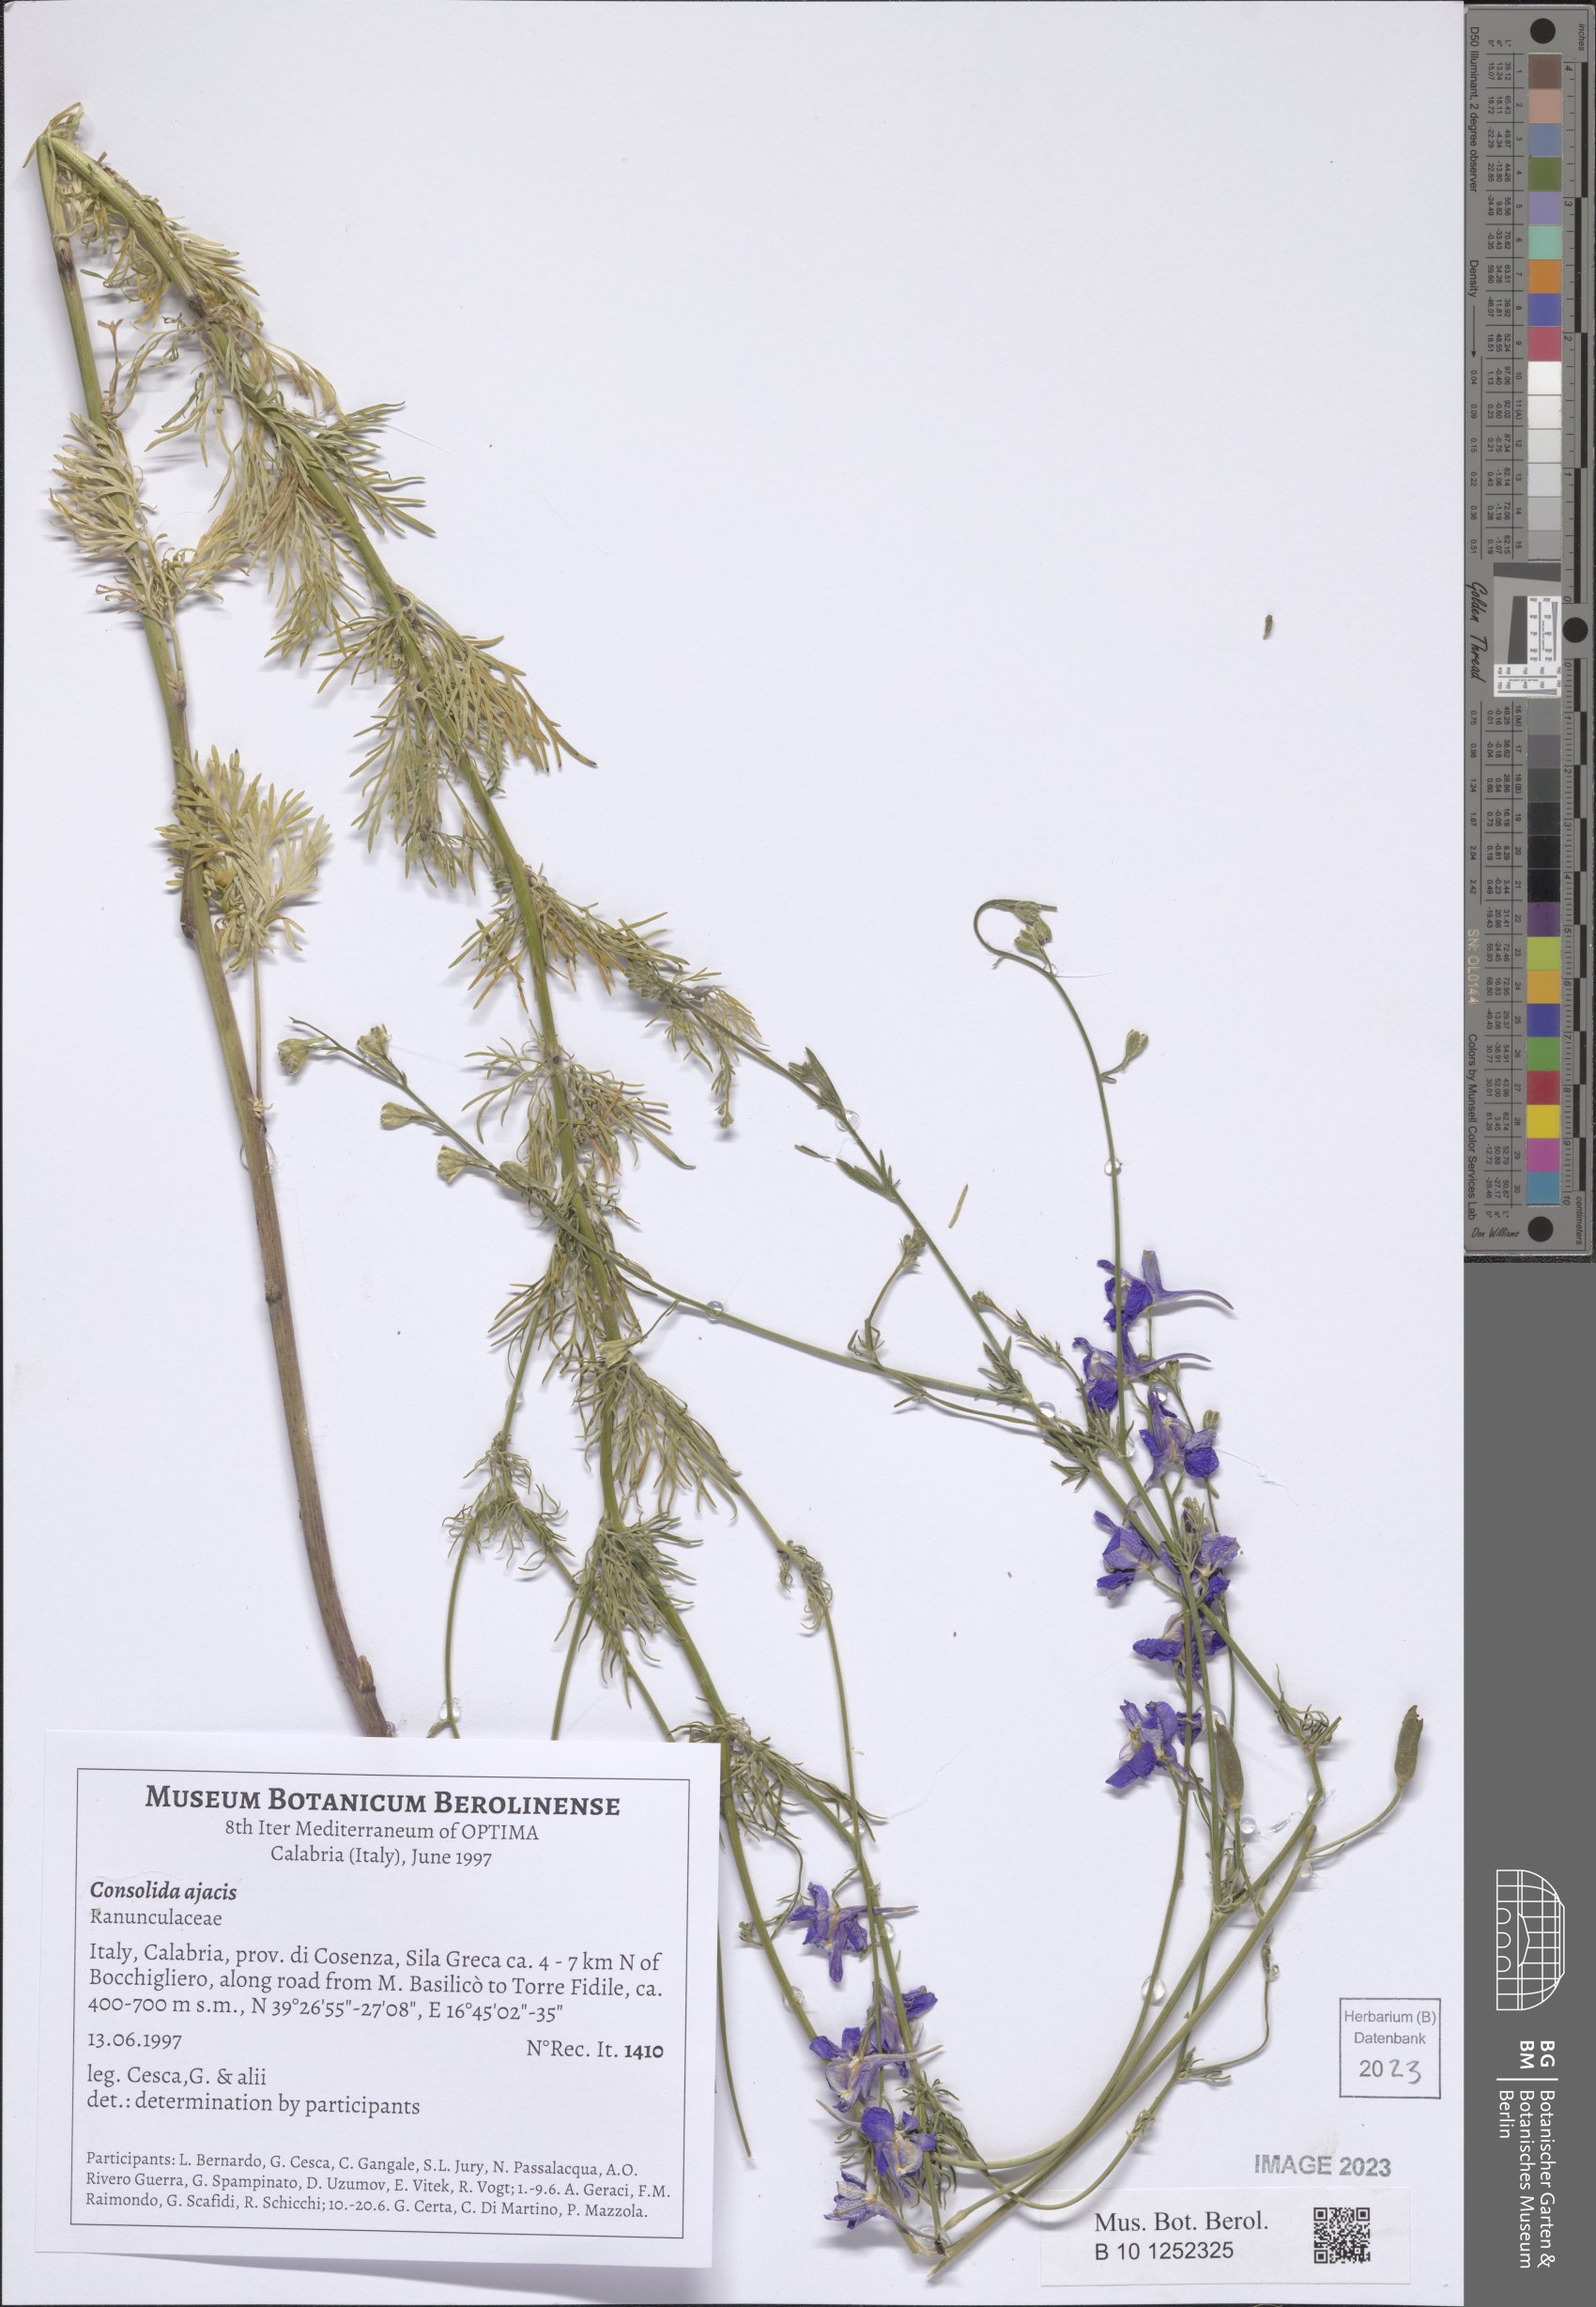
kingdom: Plantae
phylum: Tracheophyta
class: Magnoliopsida
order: Ranunculales
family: Ranunculaceae
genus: Delphinium
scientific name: Delphinium ajacis
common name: Doubtful knight's-spur
